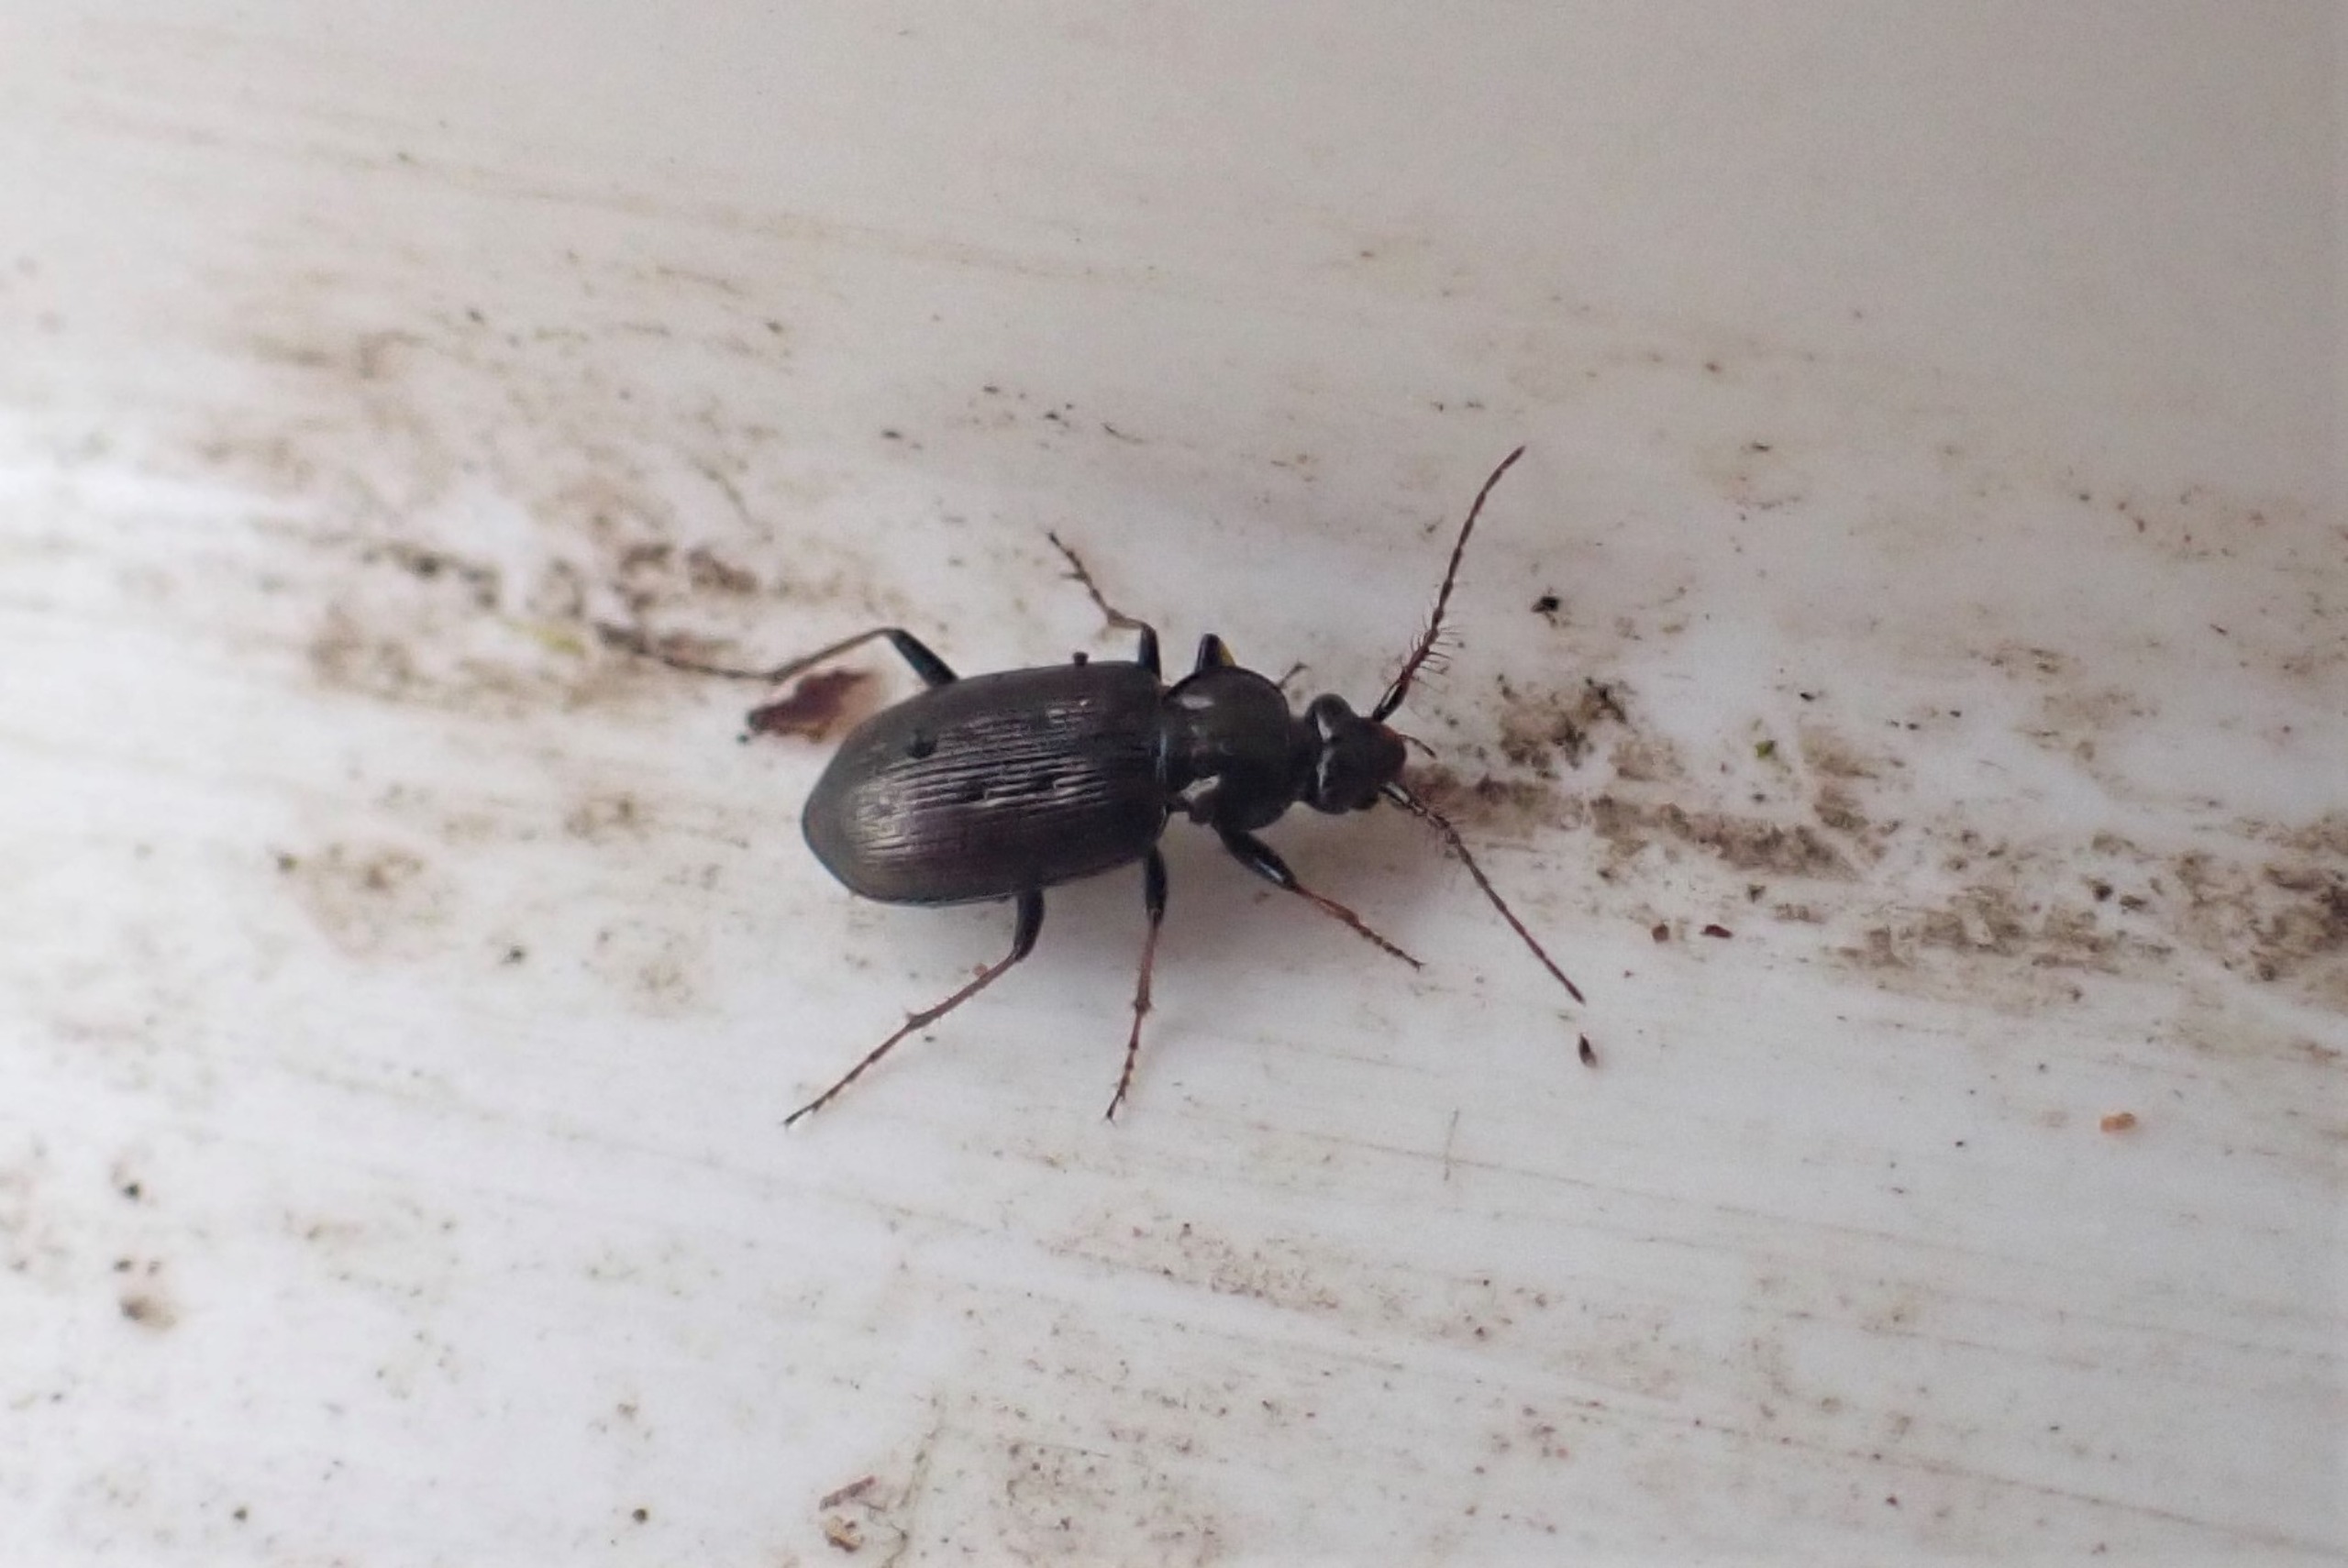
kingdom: Animalia
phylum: Arthropoda
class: Insecta
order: Coleoptera
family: Carabidae
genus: Loricera
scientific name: Loricera pilicornis
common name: Børsteløber
